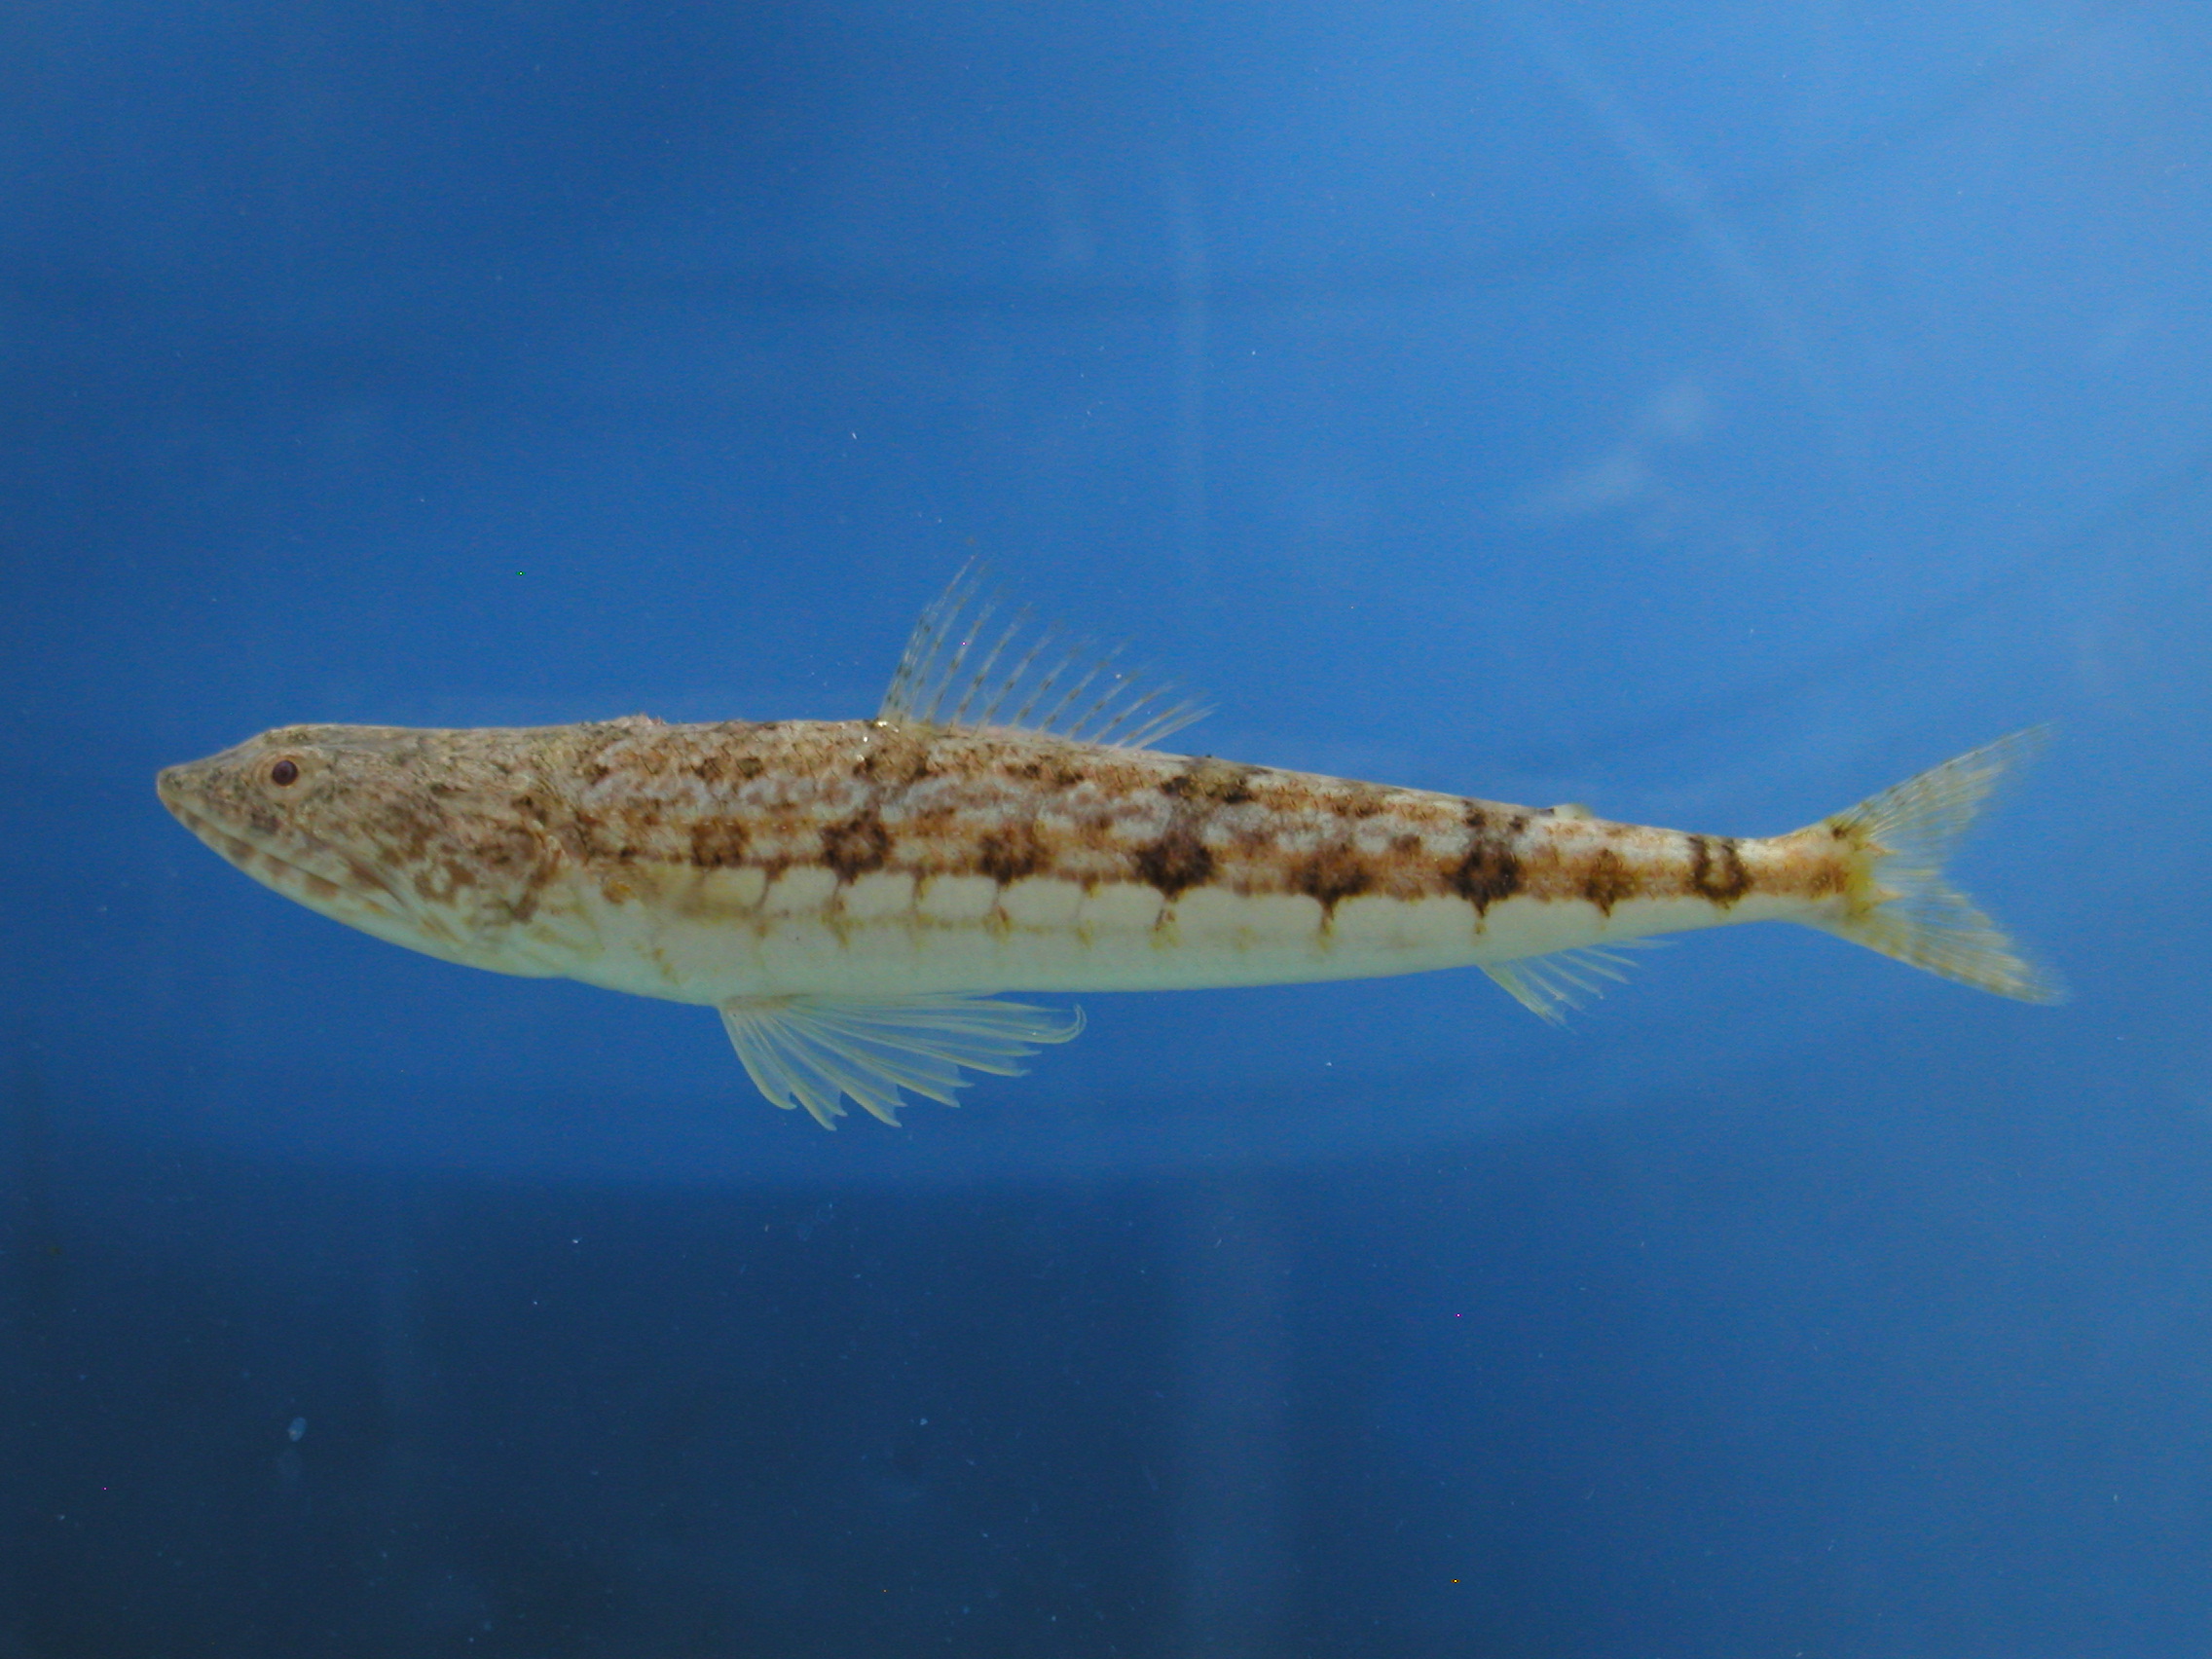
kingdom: Animalia
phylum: Chordata
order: Aulopiformes
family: Synodontidae
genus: Synodus
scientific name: Synodus dermatogenys
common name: Banded lizardfish
